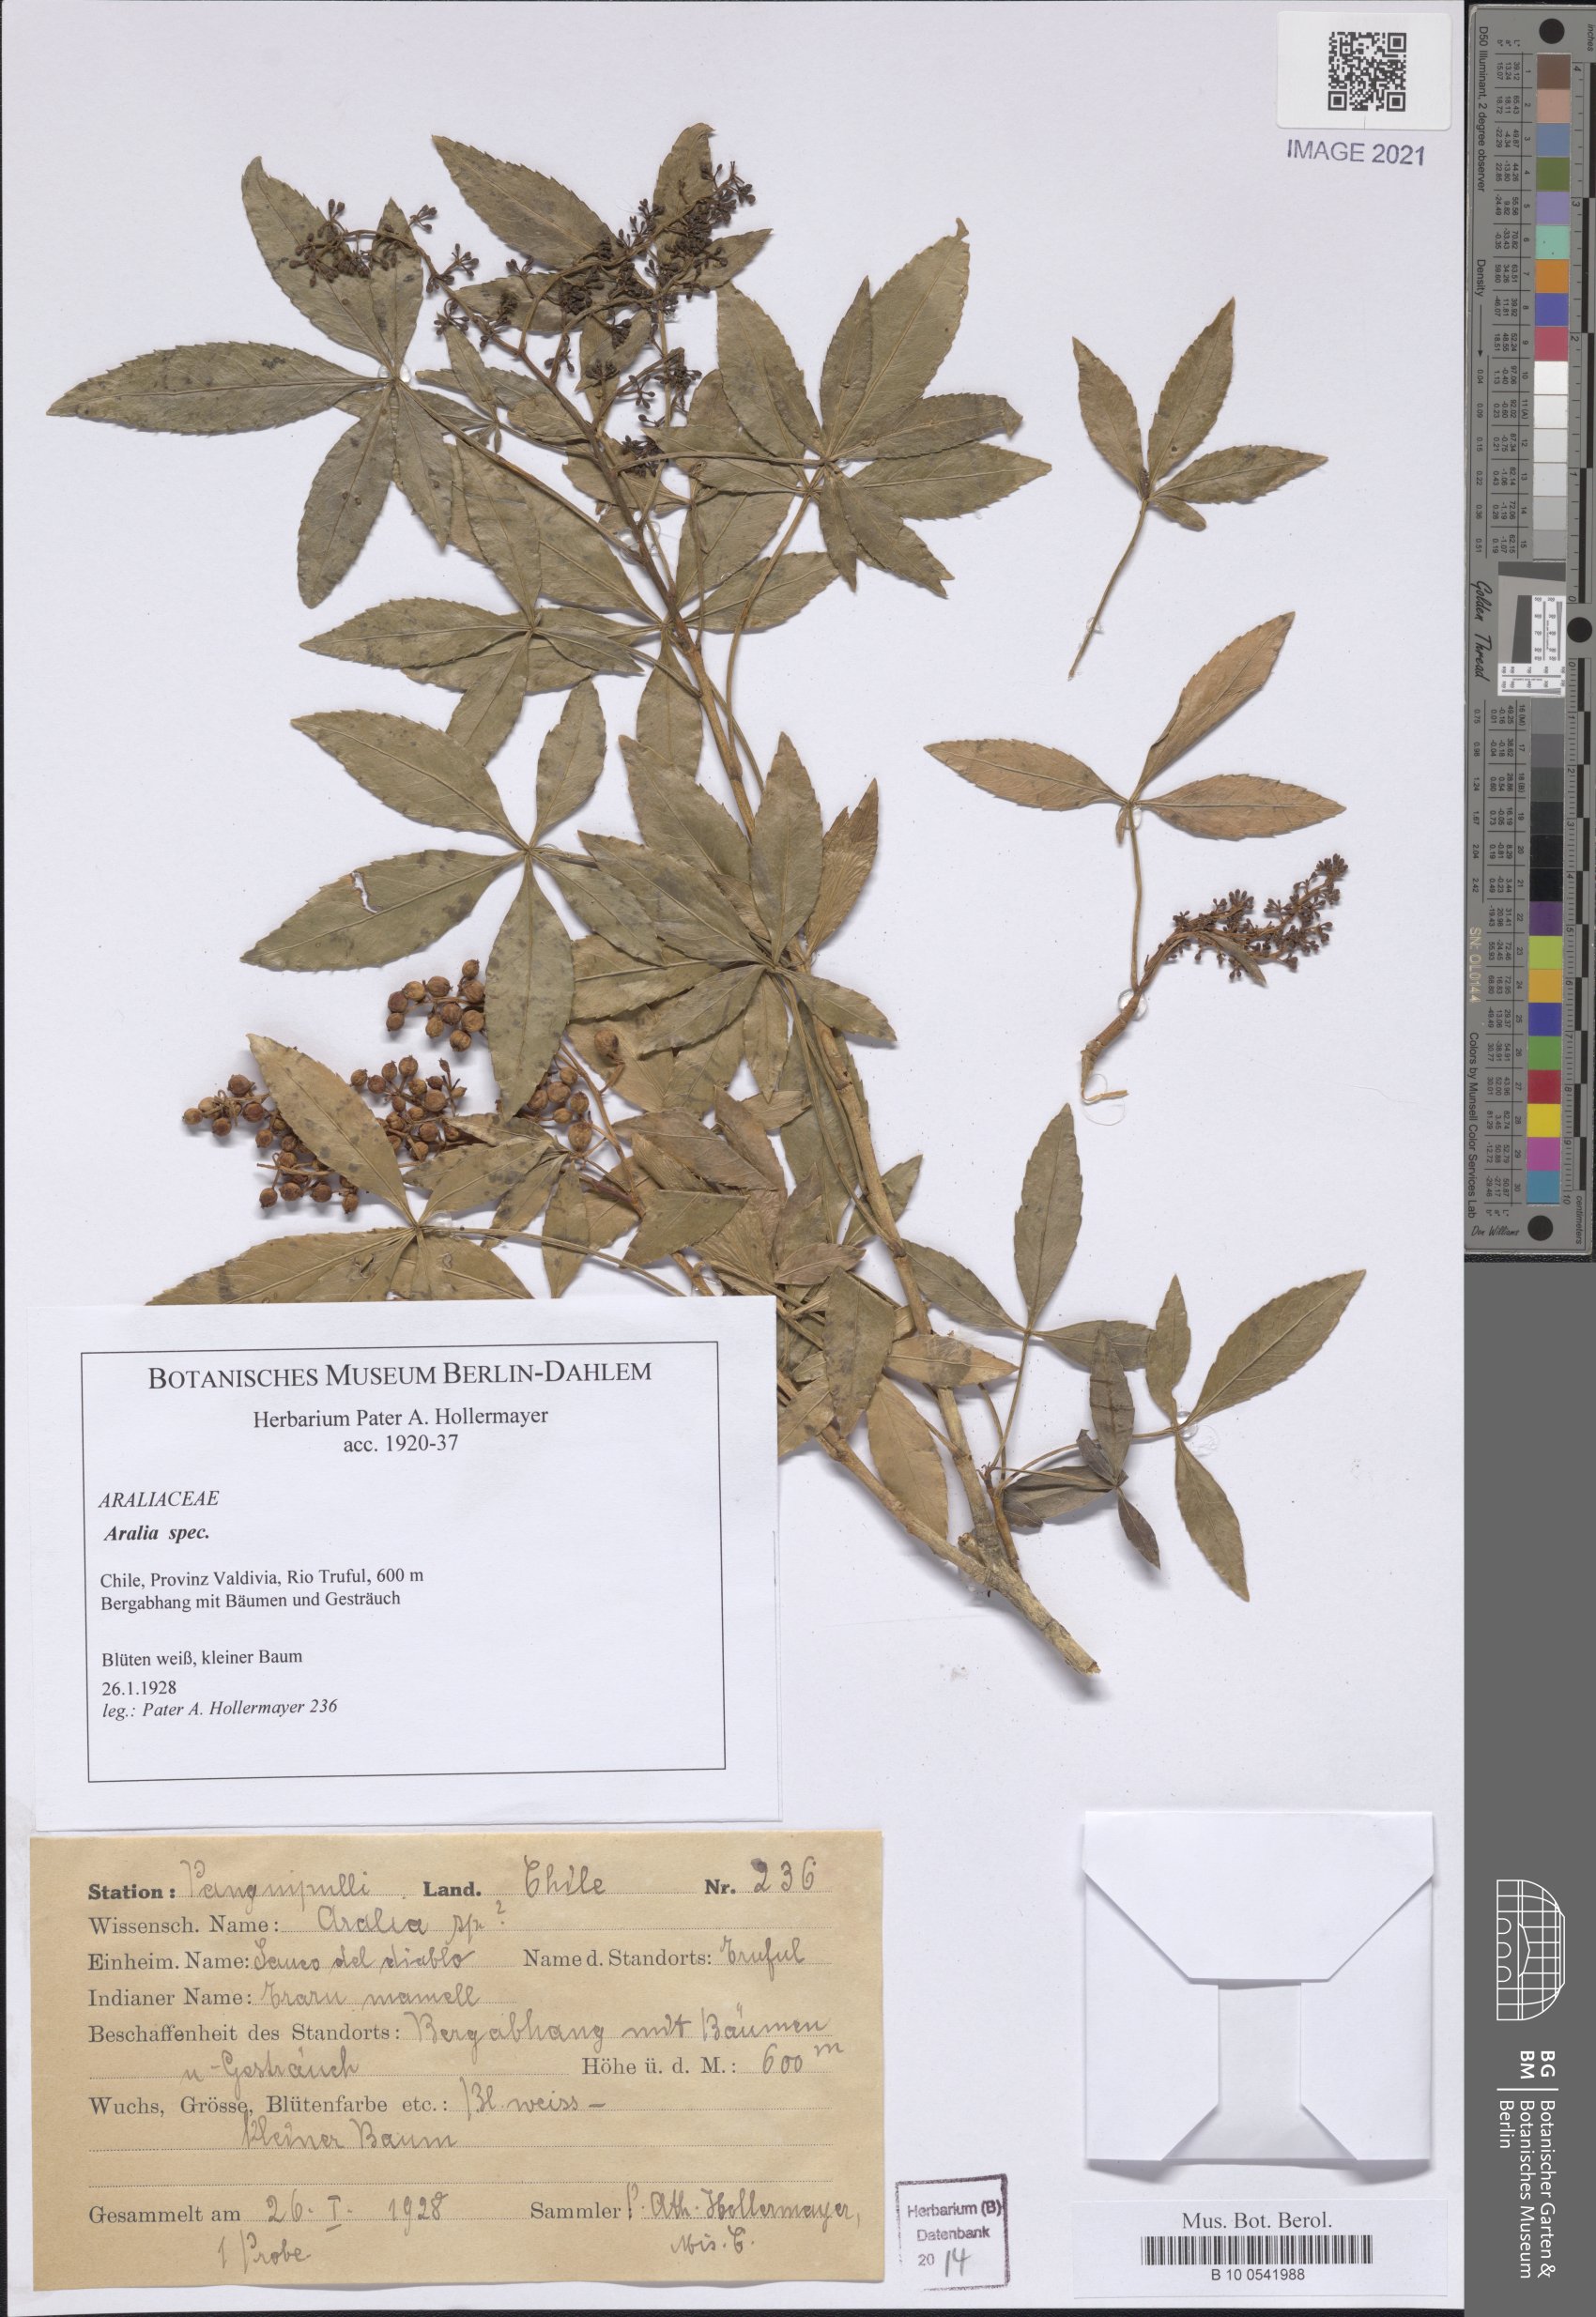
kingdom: Plantae
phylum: Tracheophyta
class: Magnoliopsida
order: Apiales
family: Araliaceae
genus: Aralia
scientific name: Aralia
